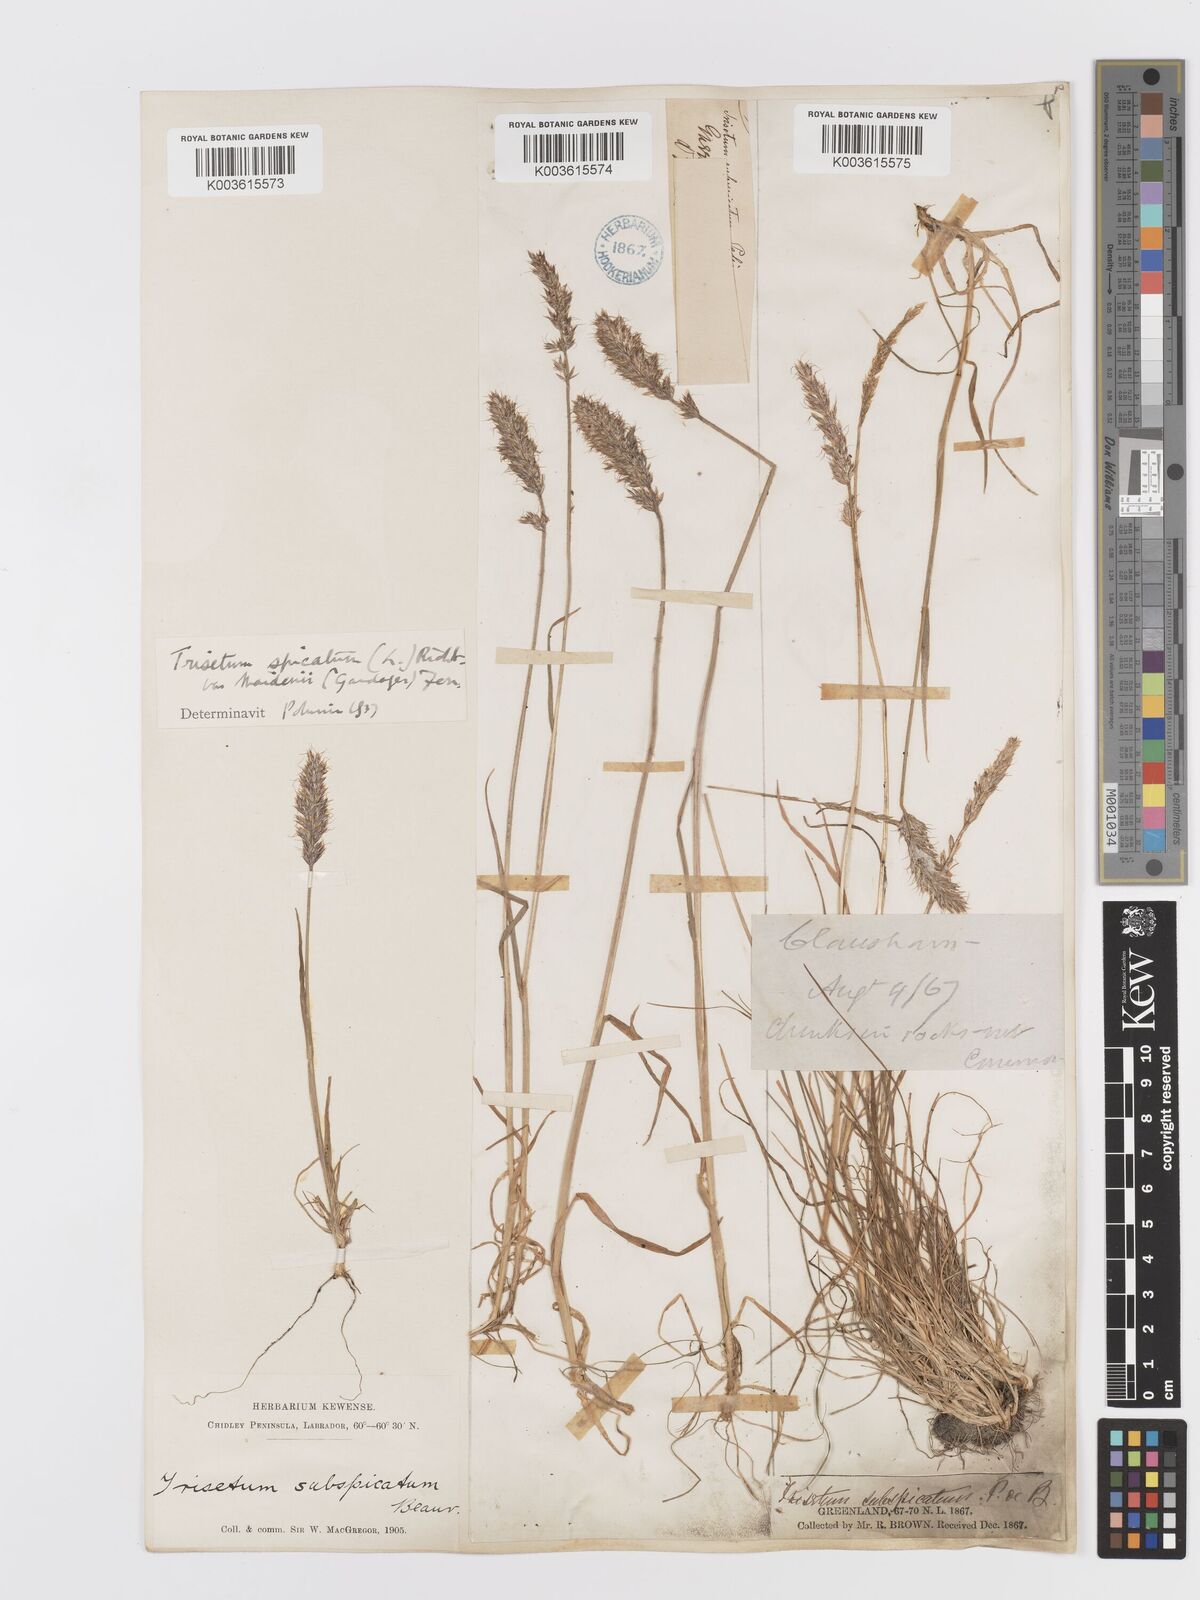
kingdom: Plantae
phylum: Tracheophyta
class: Liliopsida
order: Poales
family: Poaceae
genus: Koeleria
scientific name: Koeleria spicata
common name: Mountain trisetum
